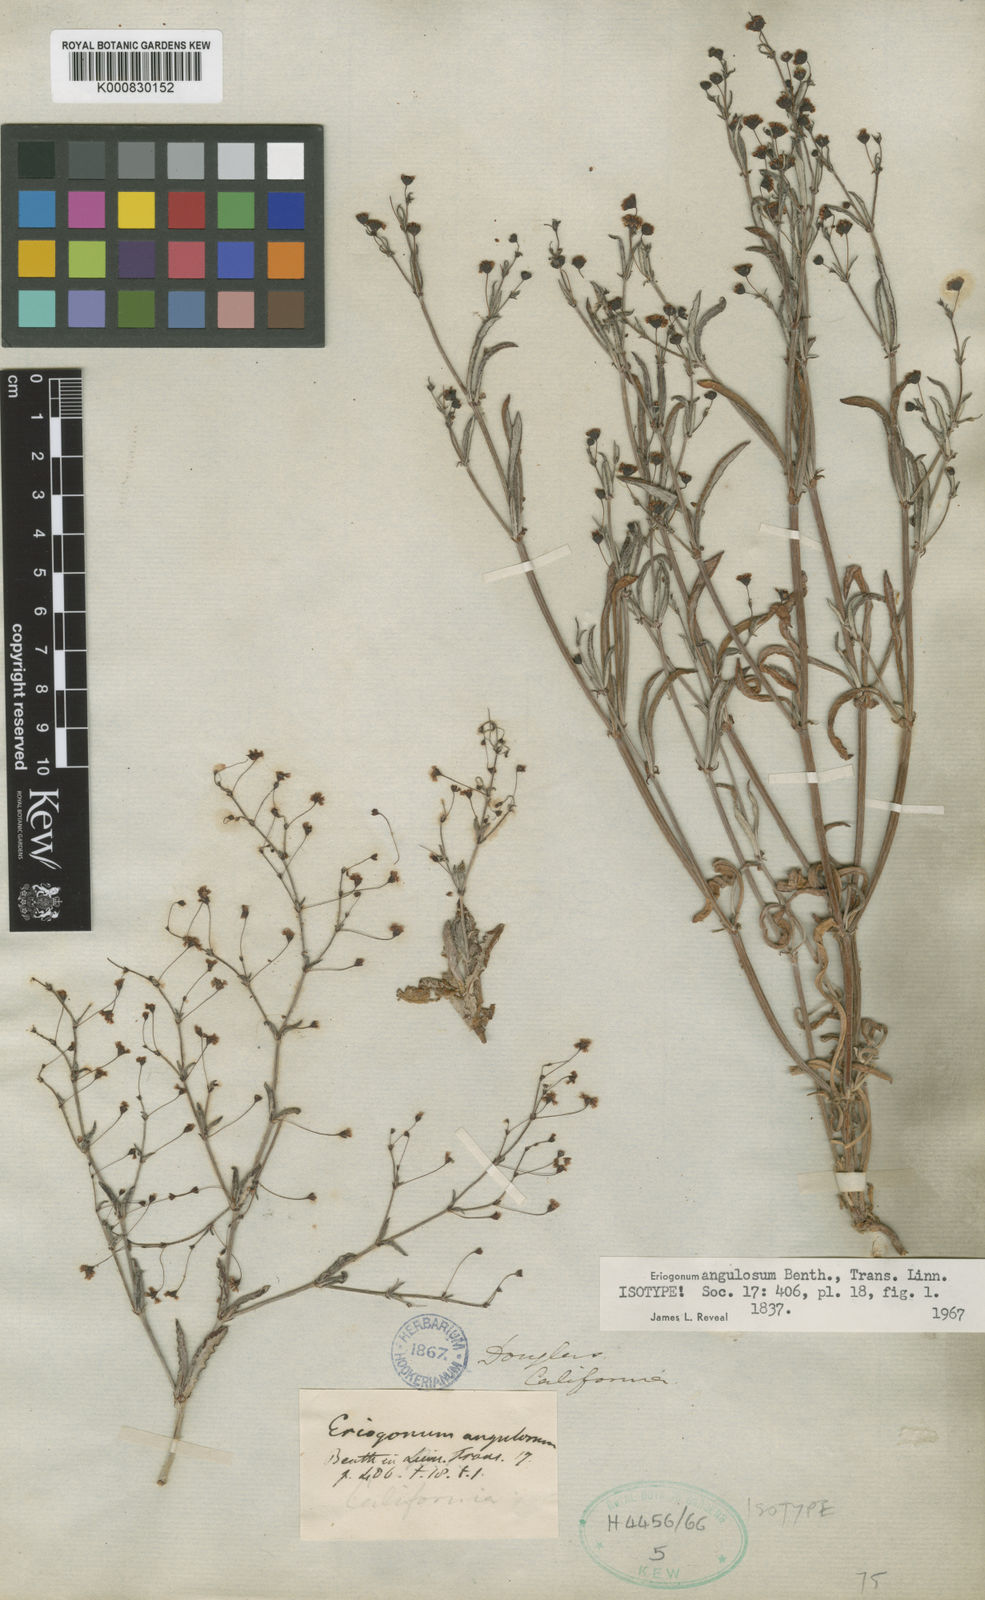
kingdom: Plantae
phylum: Tracheophyta
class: Magnoliopsida
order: Caryophyllales
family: Polygonaceae
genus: Eriogonum
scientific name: Eriogonum angulosum
